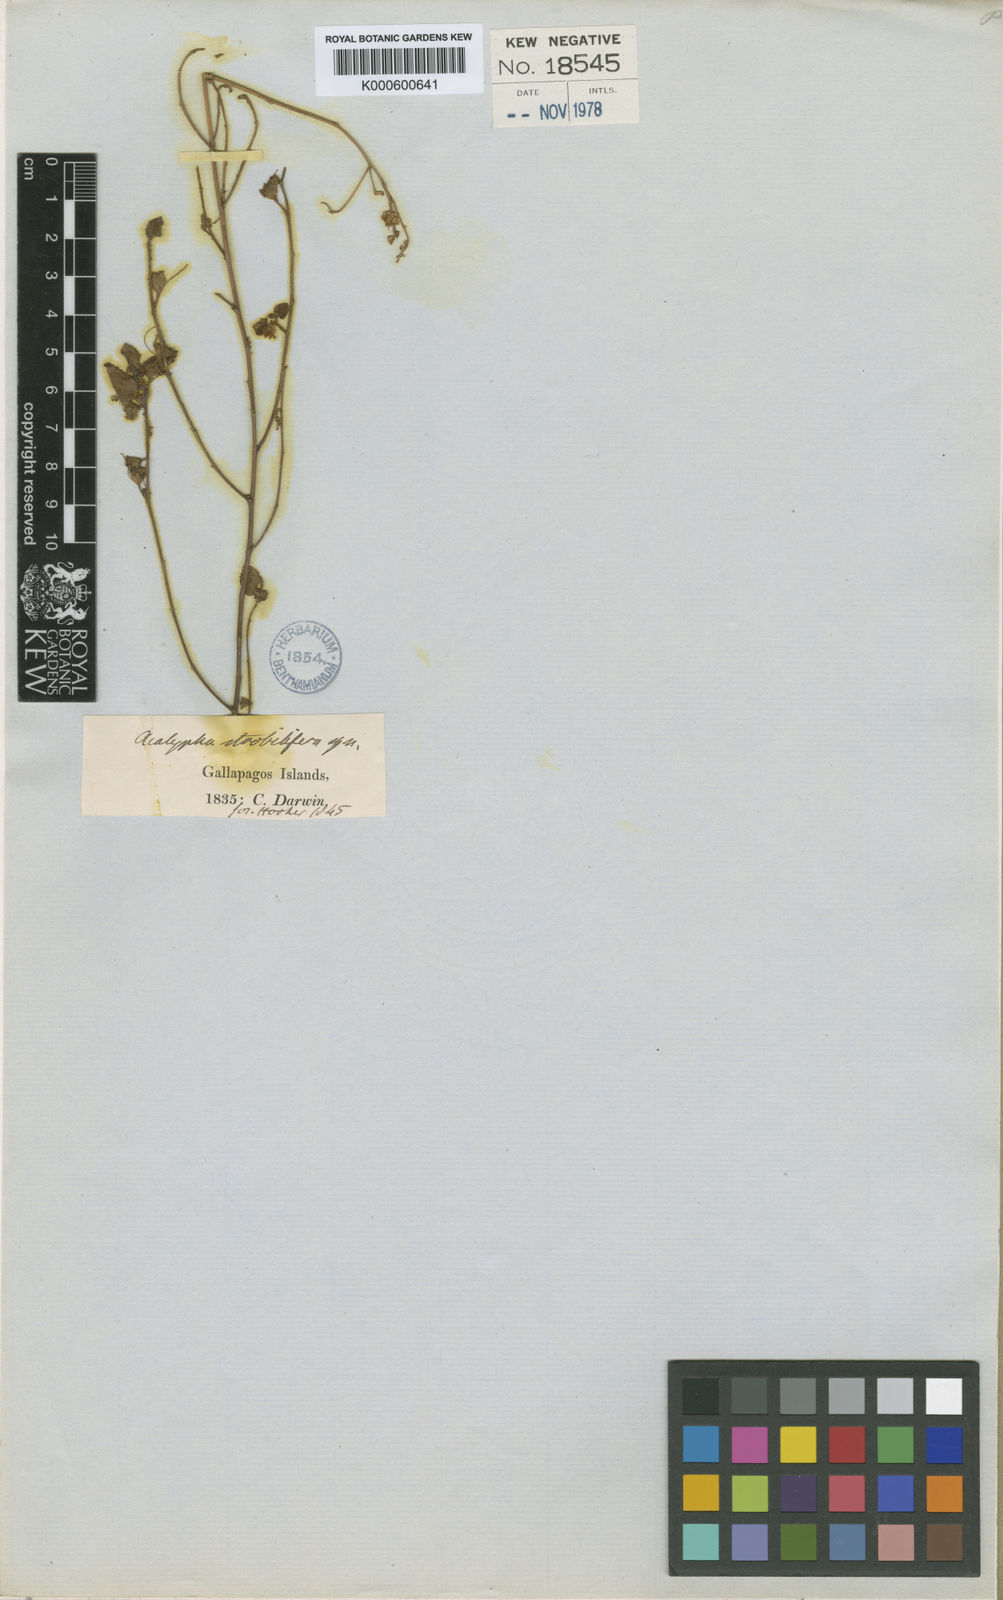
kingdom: Plantae
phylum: Tracheophyta
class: Magnoliopsida
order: Malpighiales
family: Euphorbiaceae
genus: Acalypha
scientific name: Acalypha parvula
